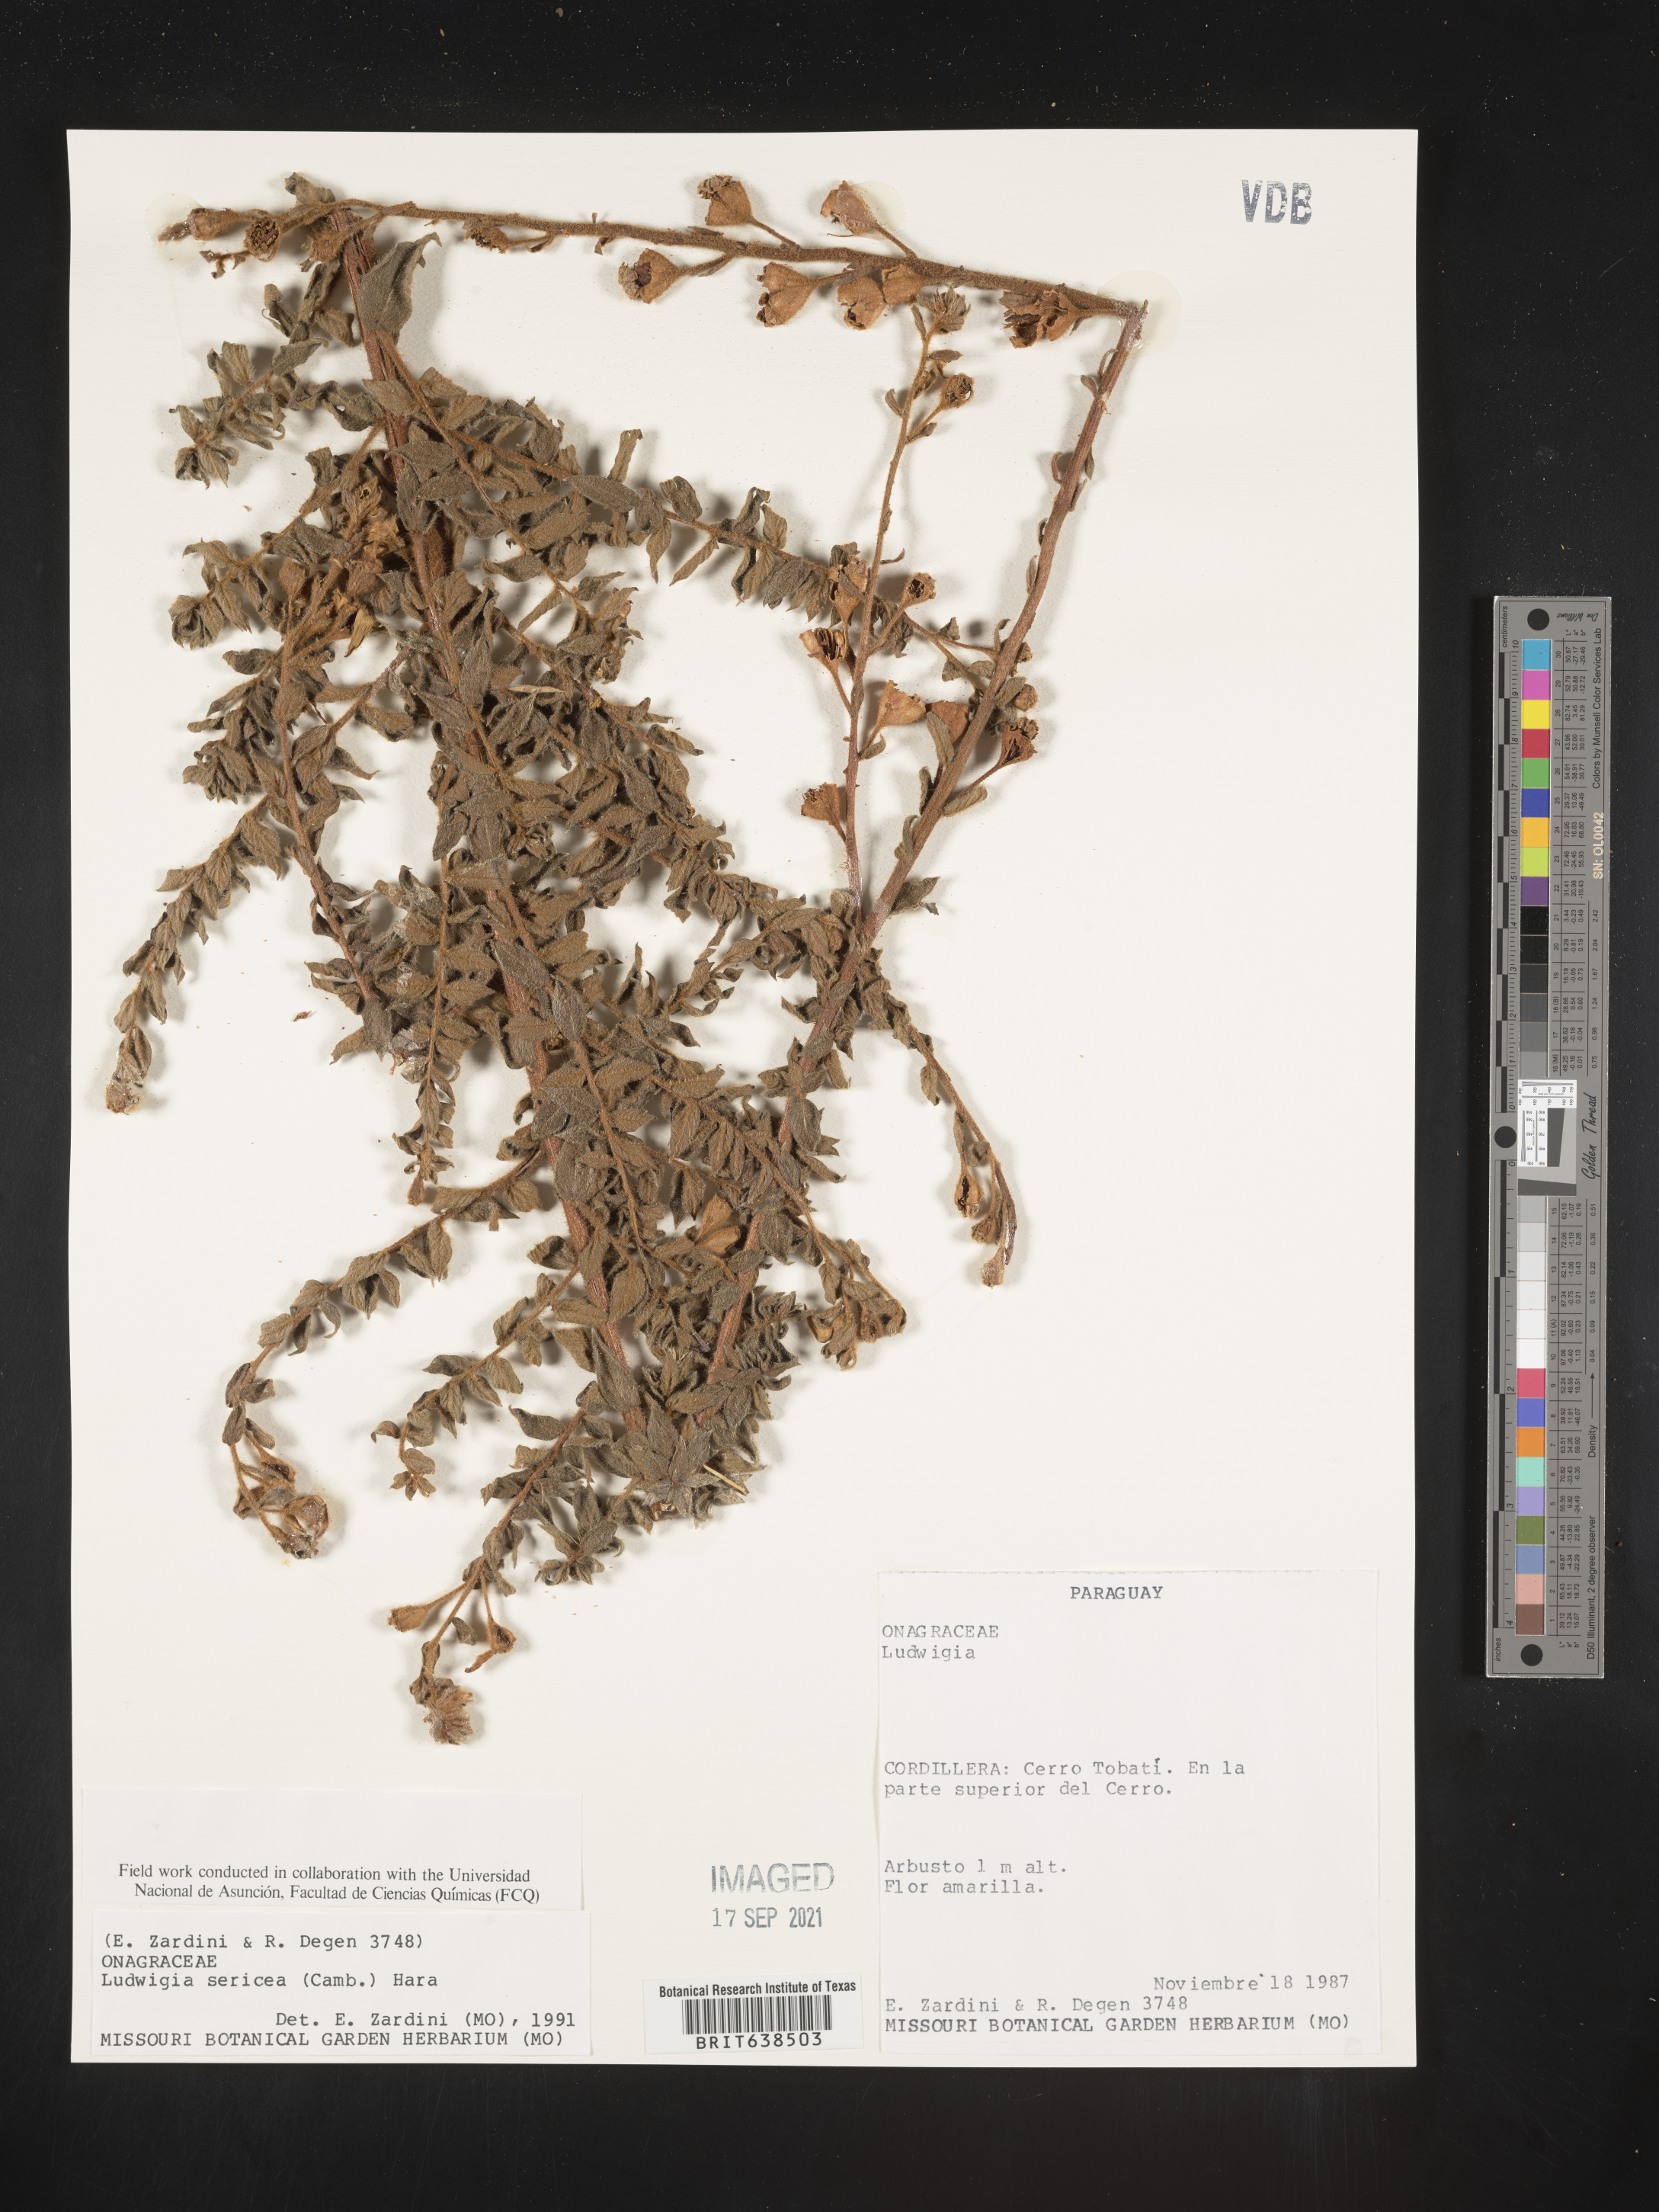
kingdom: Plantae
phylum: Tracheophyta
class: Magnoliopsida
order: Myrtales
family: Onagraceae
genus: Ludwigia
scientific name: Ludwigia
